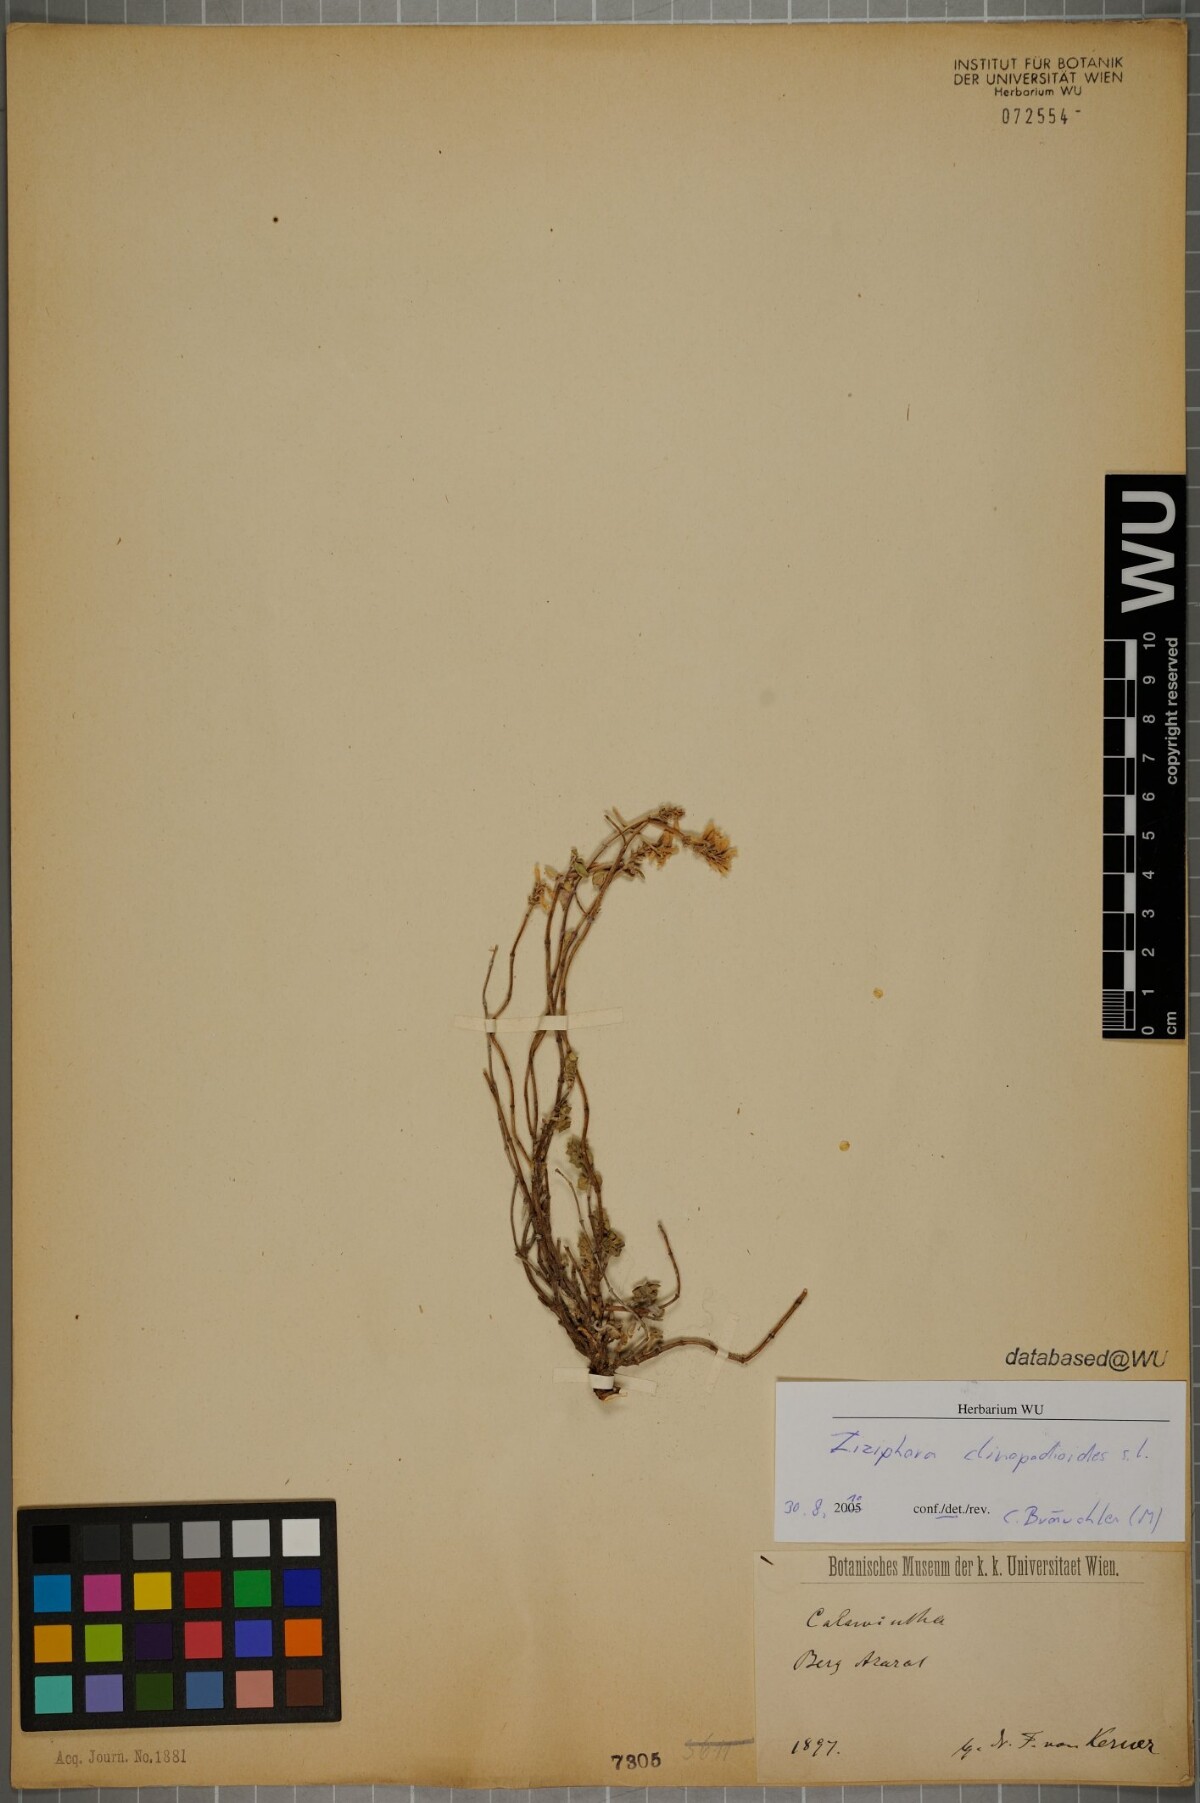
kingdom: Plantae
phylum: Tracheophyta
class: Magnoliopsida
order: Lamiales
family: Lamiaceae
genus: Ziziphora
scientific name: Ziziphora clinopodioides
